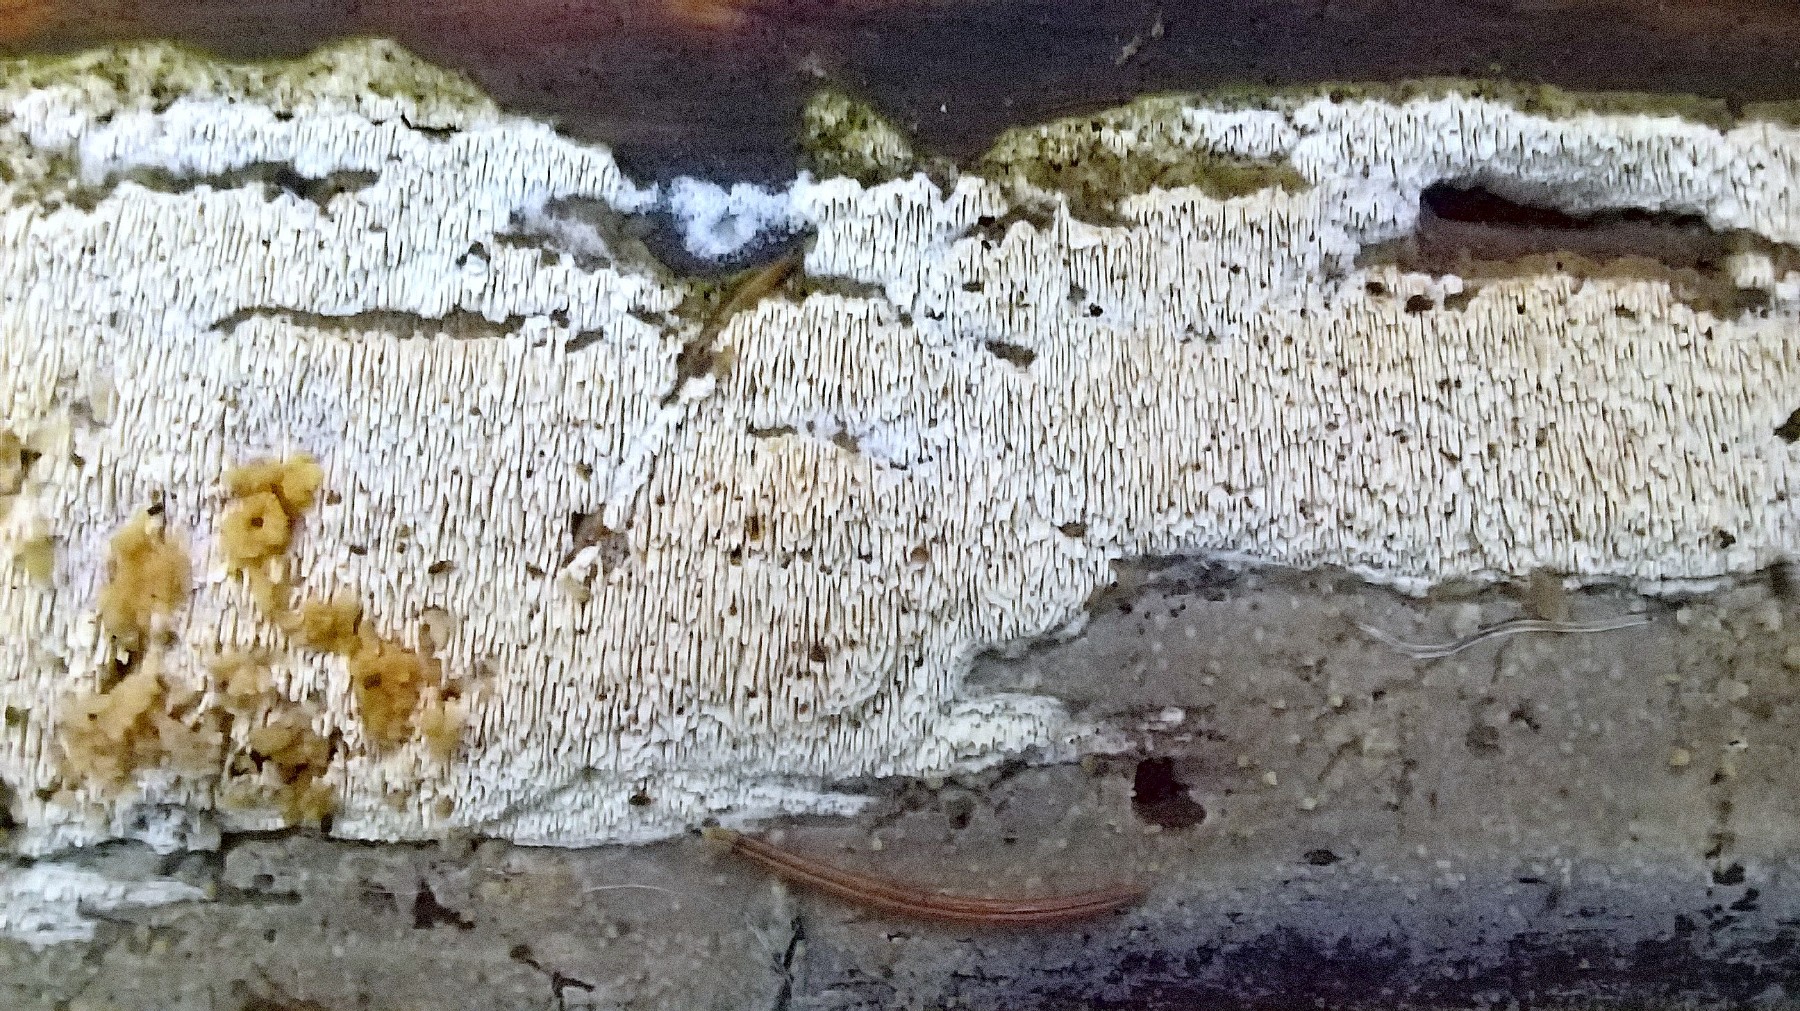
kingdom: Fungi
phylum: Basidiomycota
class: Agaricomycetes
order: Corticiales
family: Corticiaceae
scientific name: Corticiaceae
